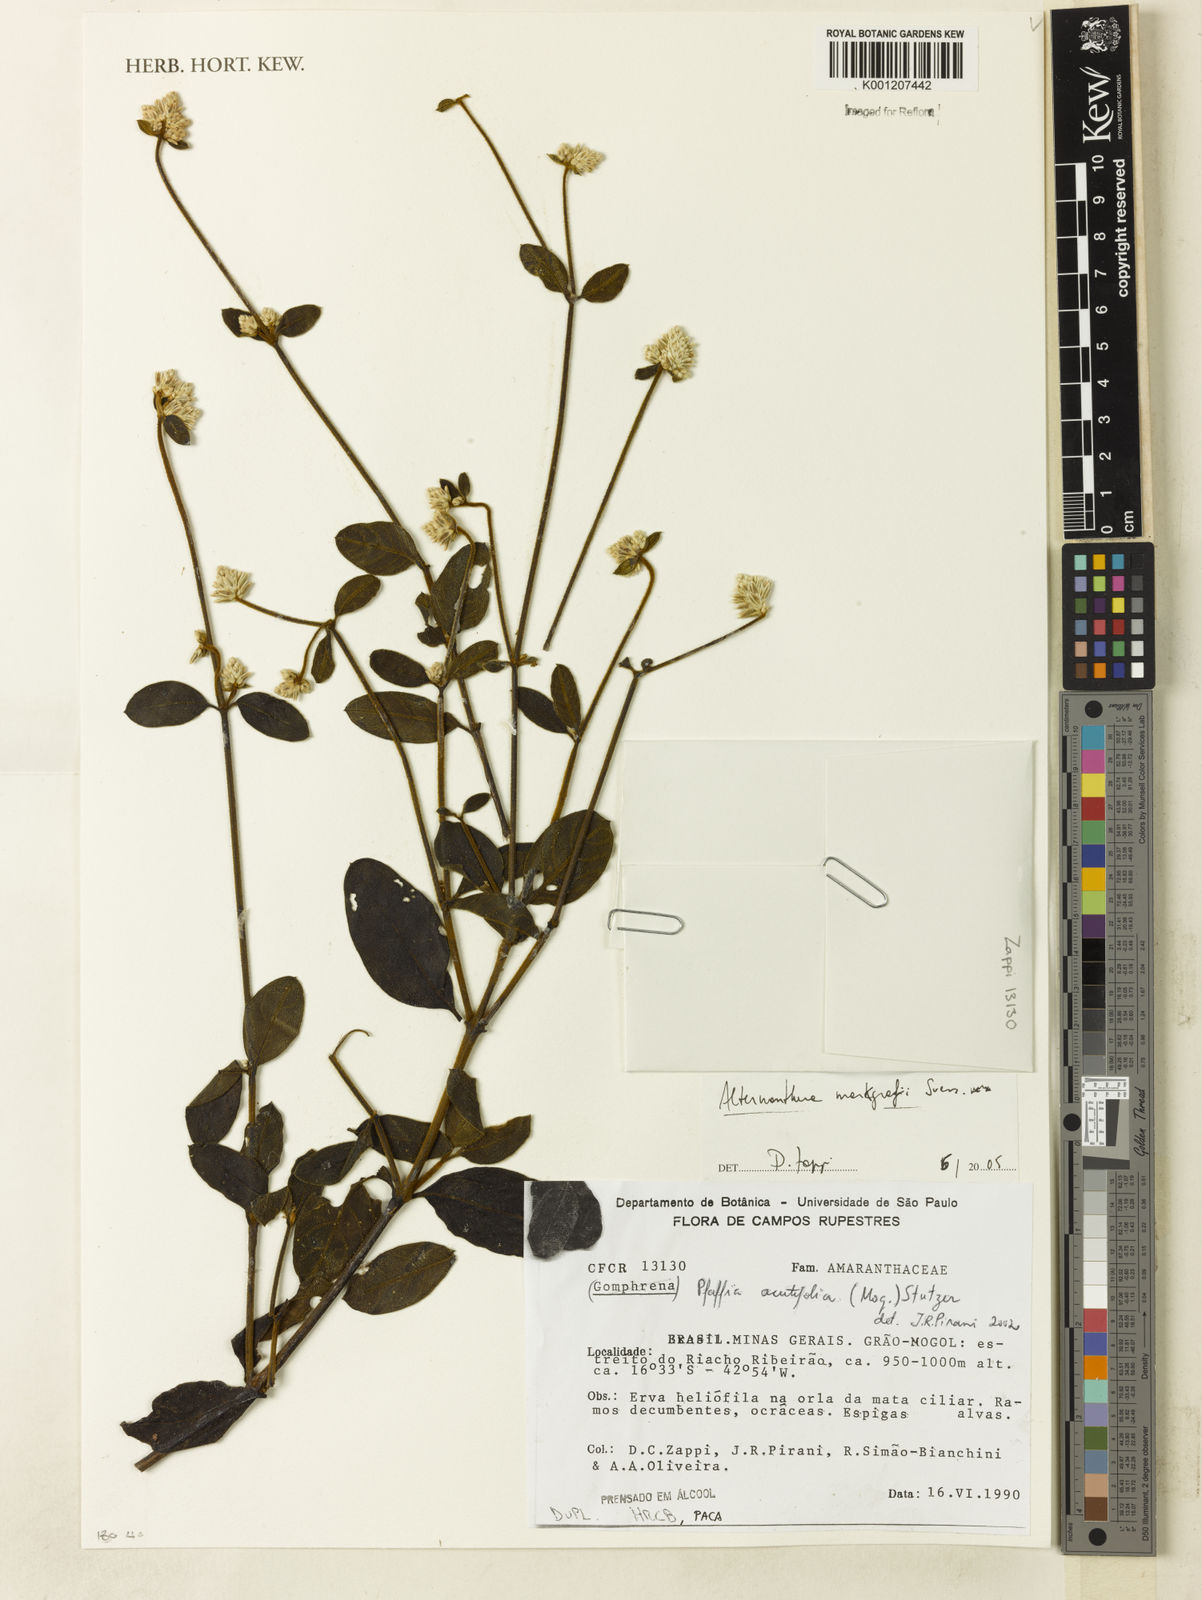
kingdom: Plantae
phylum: Tracheophyta
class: Magnoliopsida
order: Caryophyllales
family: Amaranthaceae
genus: Alternanthera
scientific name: Alternanthera markgrafii
